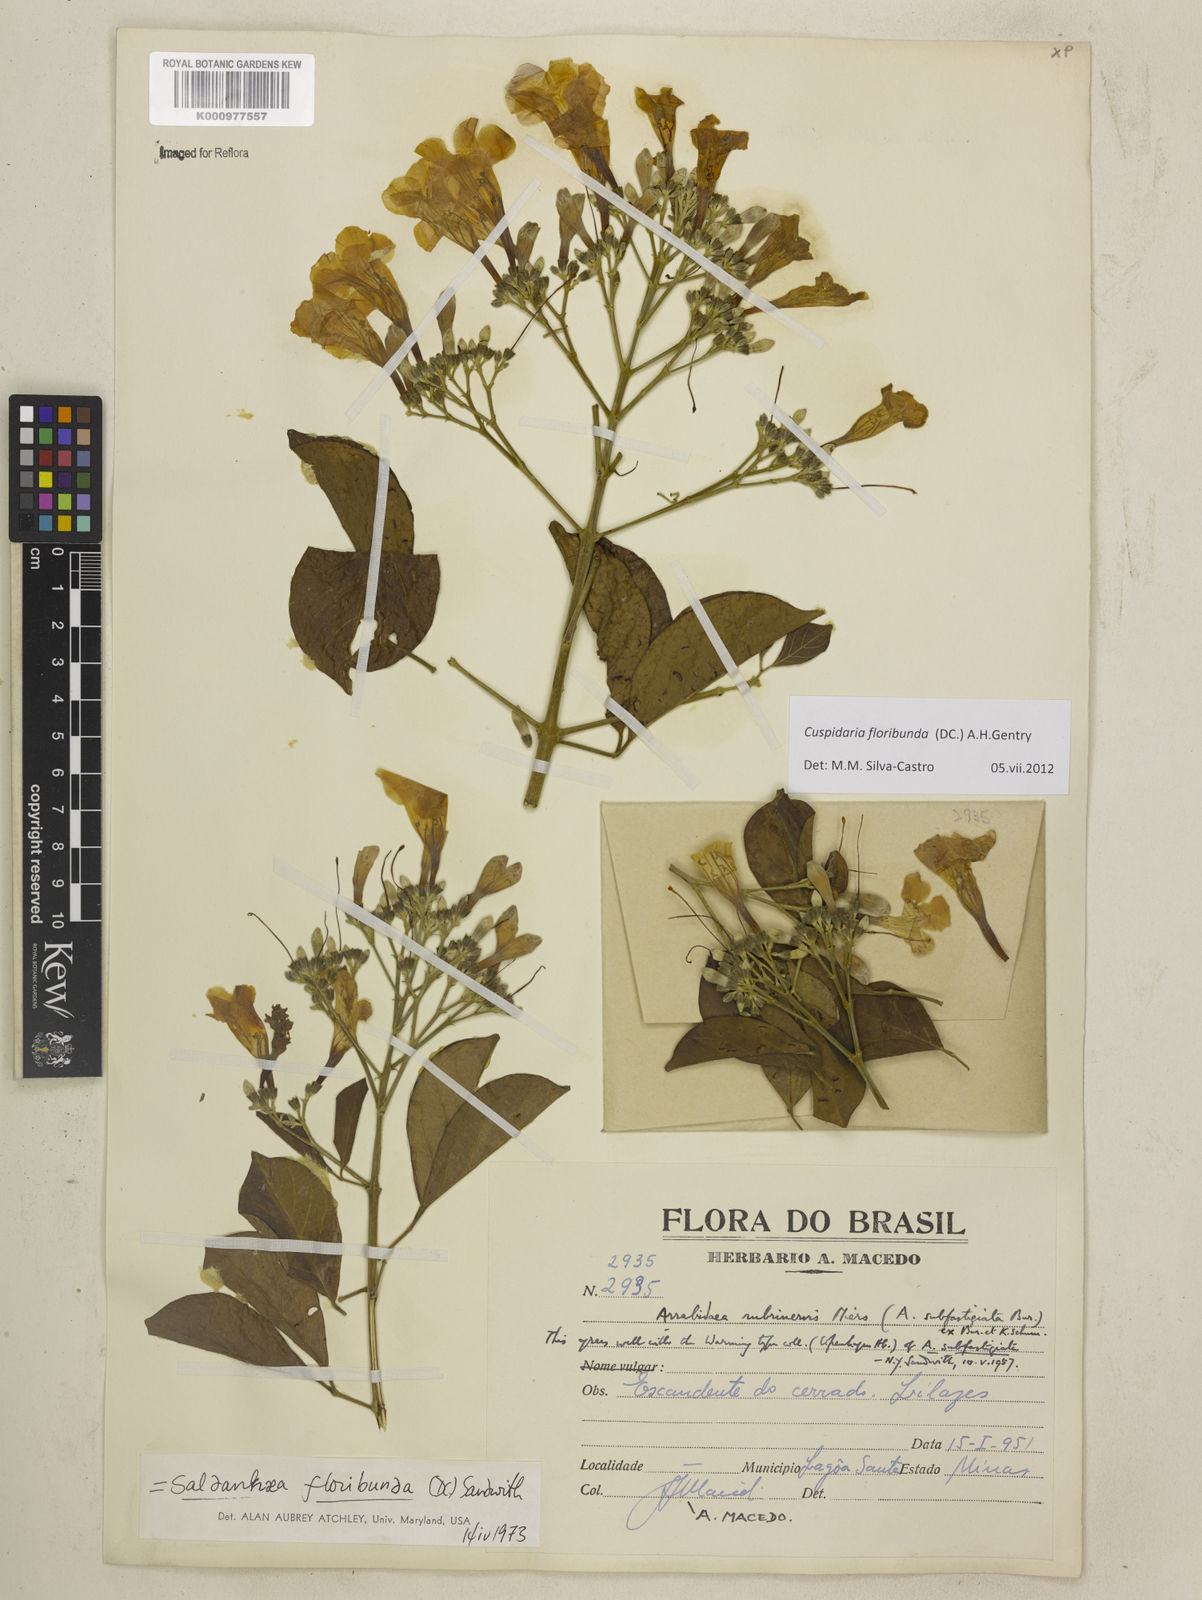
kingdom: Plantae
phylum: Tracheophyta
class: Magnoliopsida
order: Lamiales
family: Bignoniaceae
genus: Cuspidaria
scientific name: Cuspidaria floribunda
